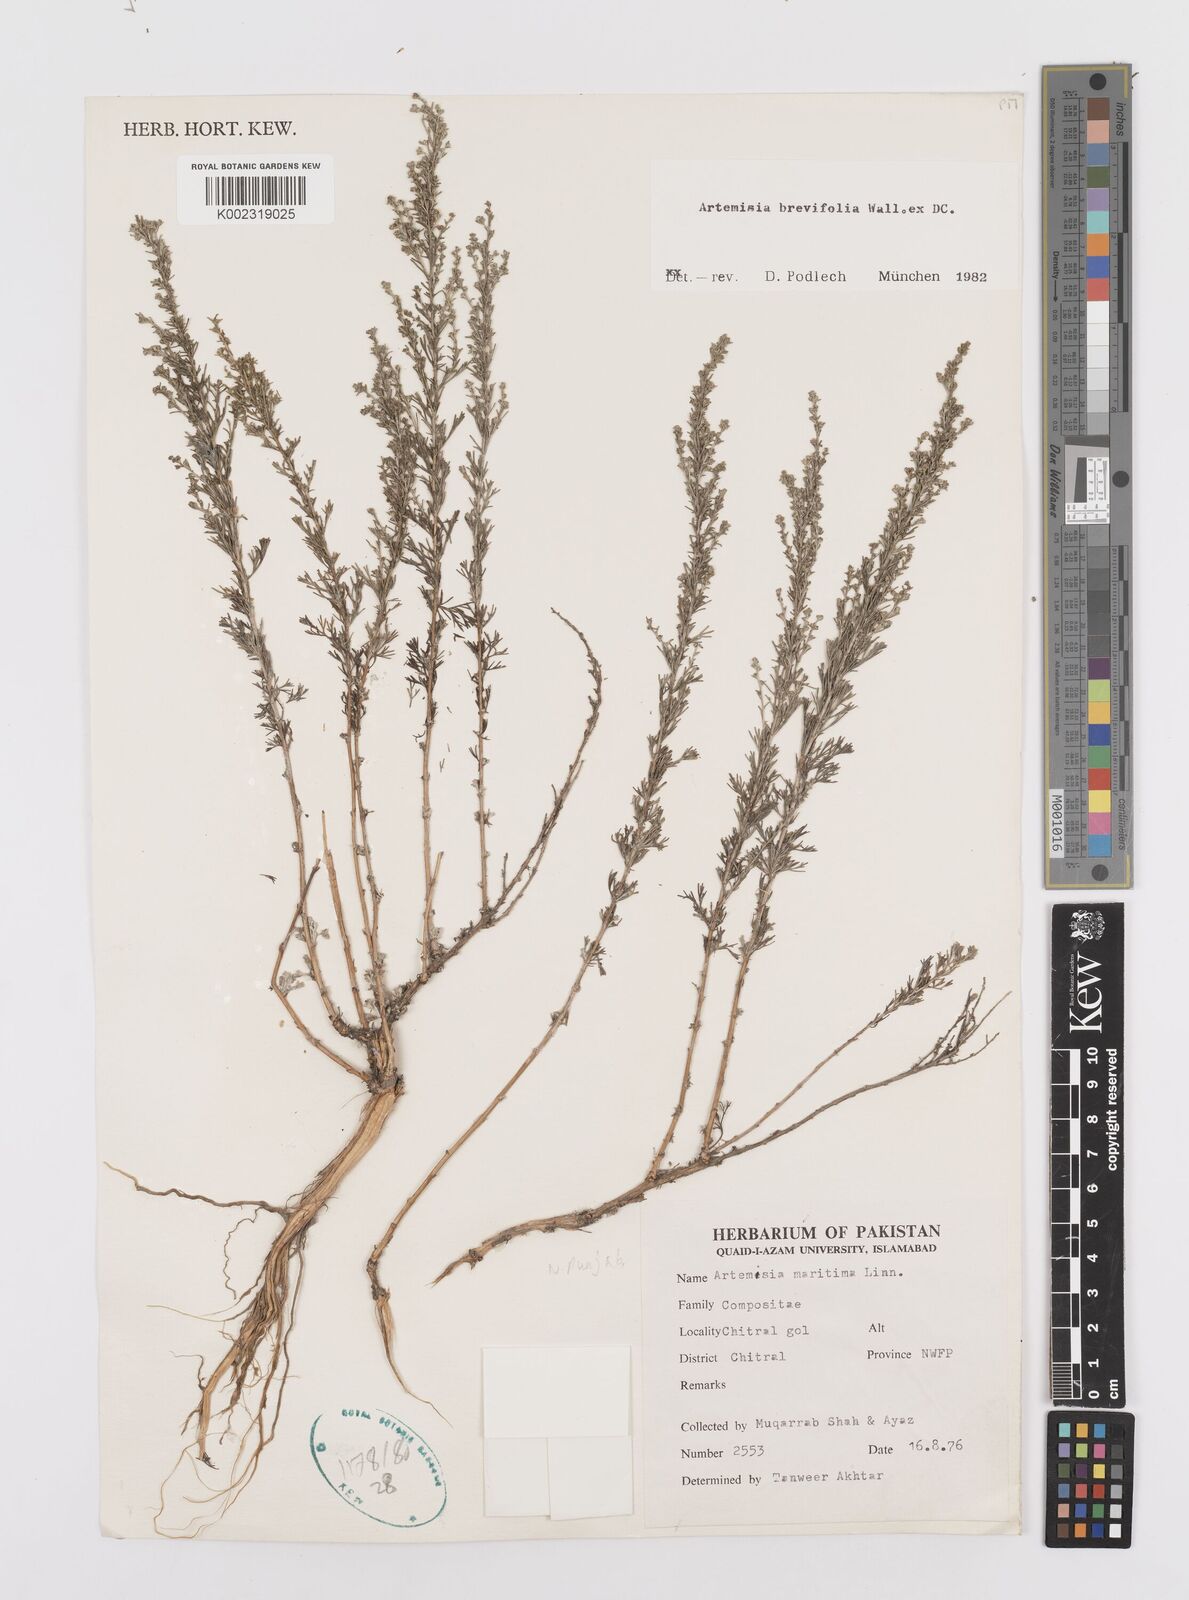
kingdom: Plantae
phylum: Tracheophyta
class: Magnoliopsida
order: Asterales
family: Asteraceae
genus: Artemisia
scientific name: Artemisia kurramensis
